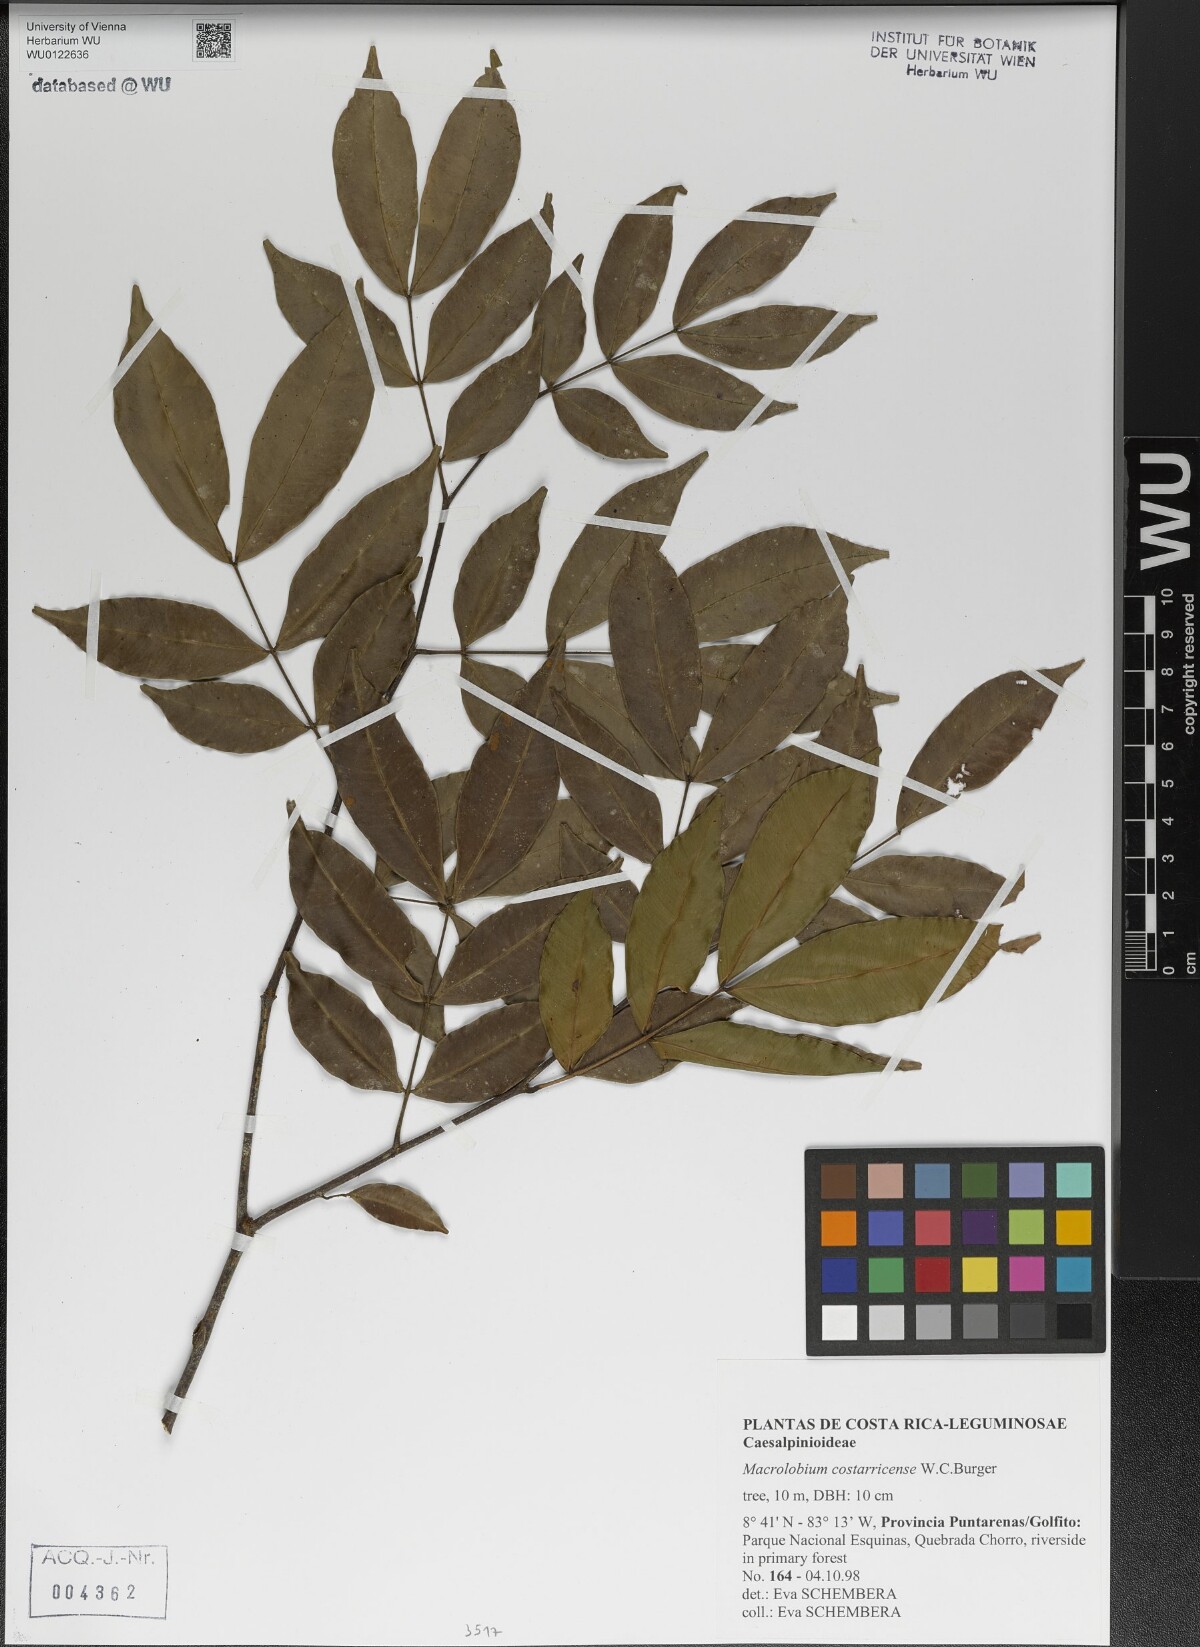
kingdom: Plantae
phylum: Tracheophyta
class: Magnoliopsida
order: Fabales
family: Fabaceae
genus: Macrolobium
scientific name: Macrolobium costaricense
